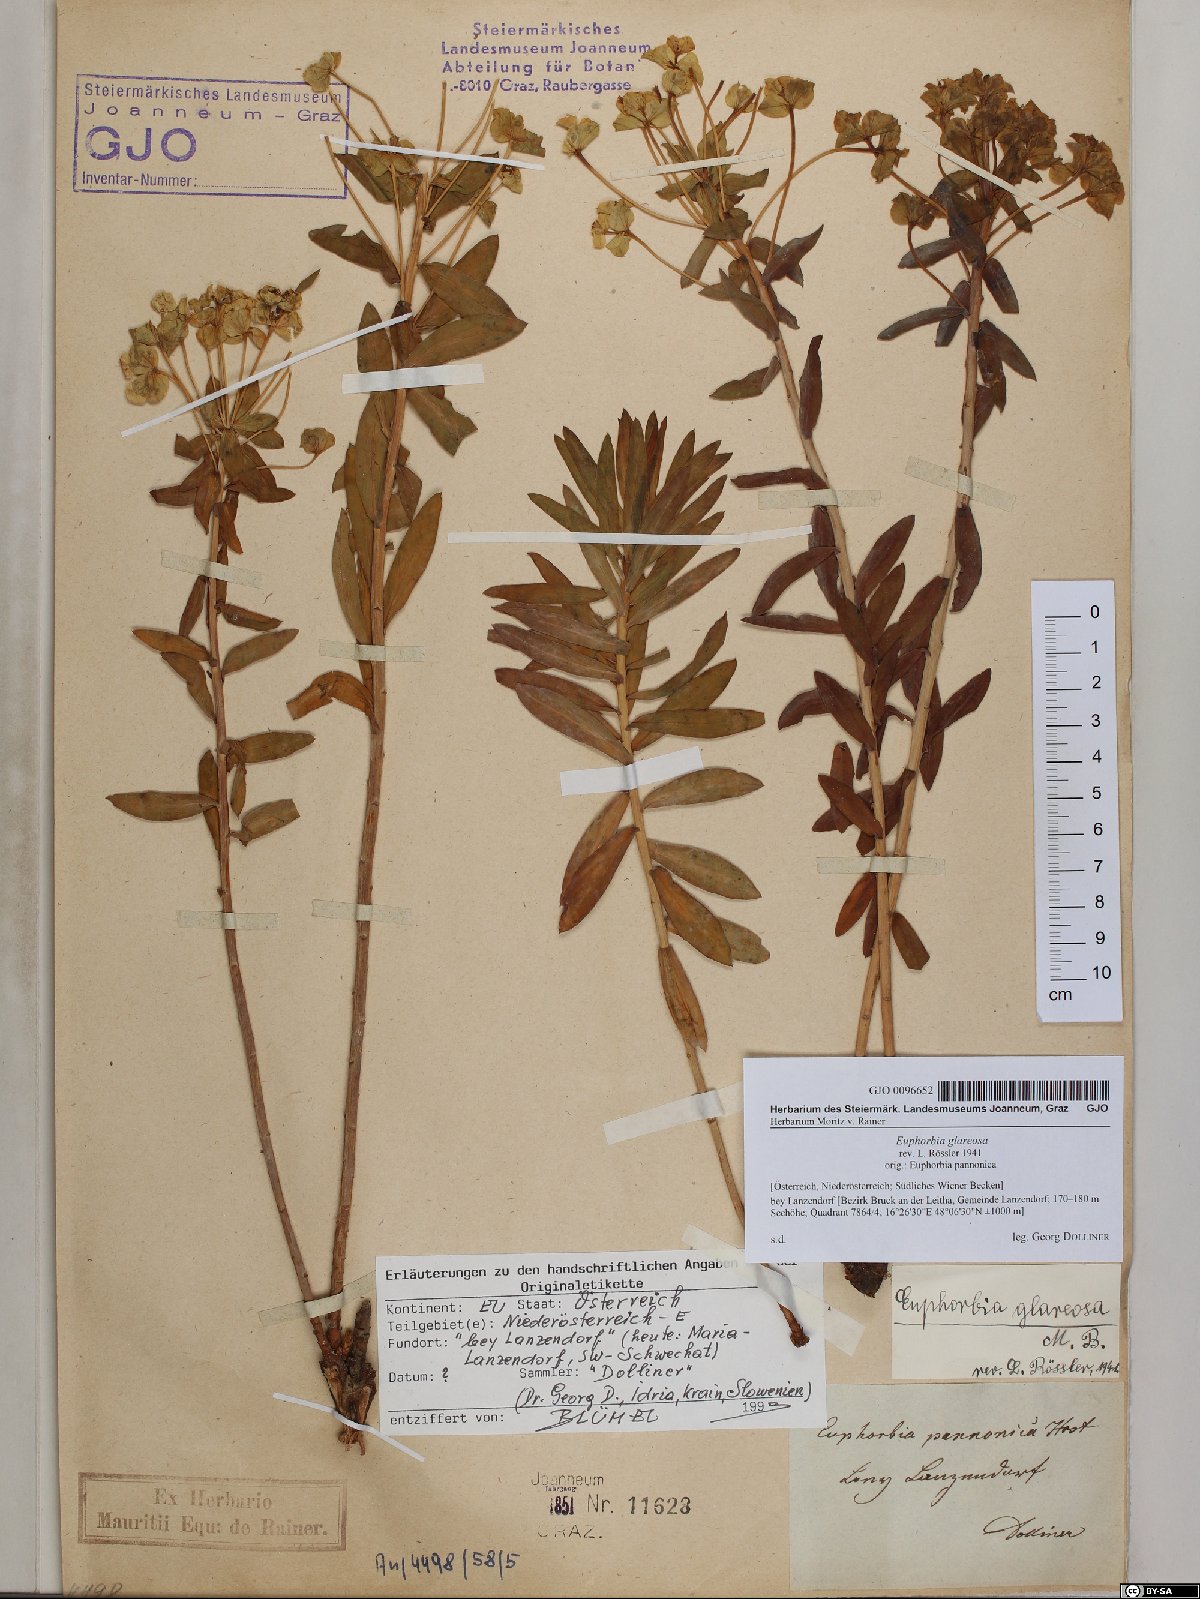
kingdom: Plantae
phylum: Tracheophyta
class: Magnoliopsida
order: Malpighiales
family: Euphorbiaceae
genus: Euphorbia
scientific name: Euphorbia glareosa
